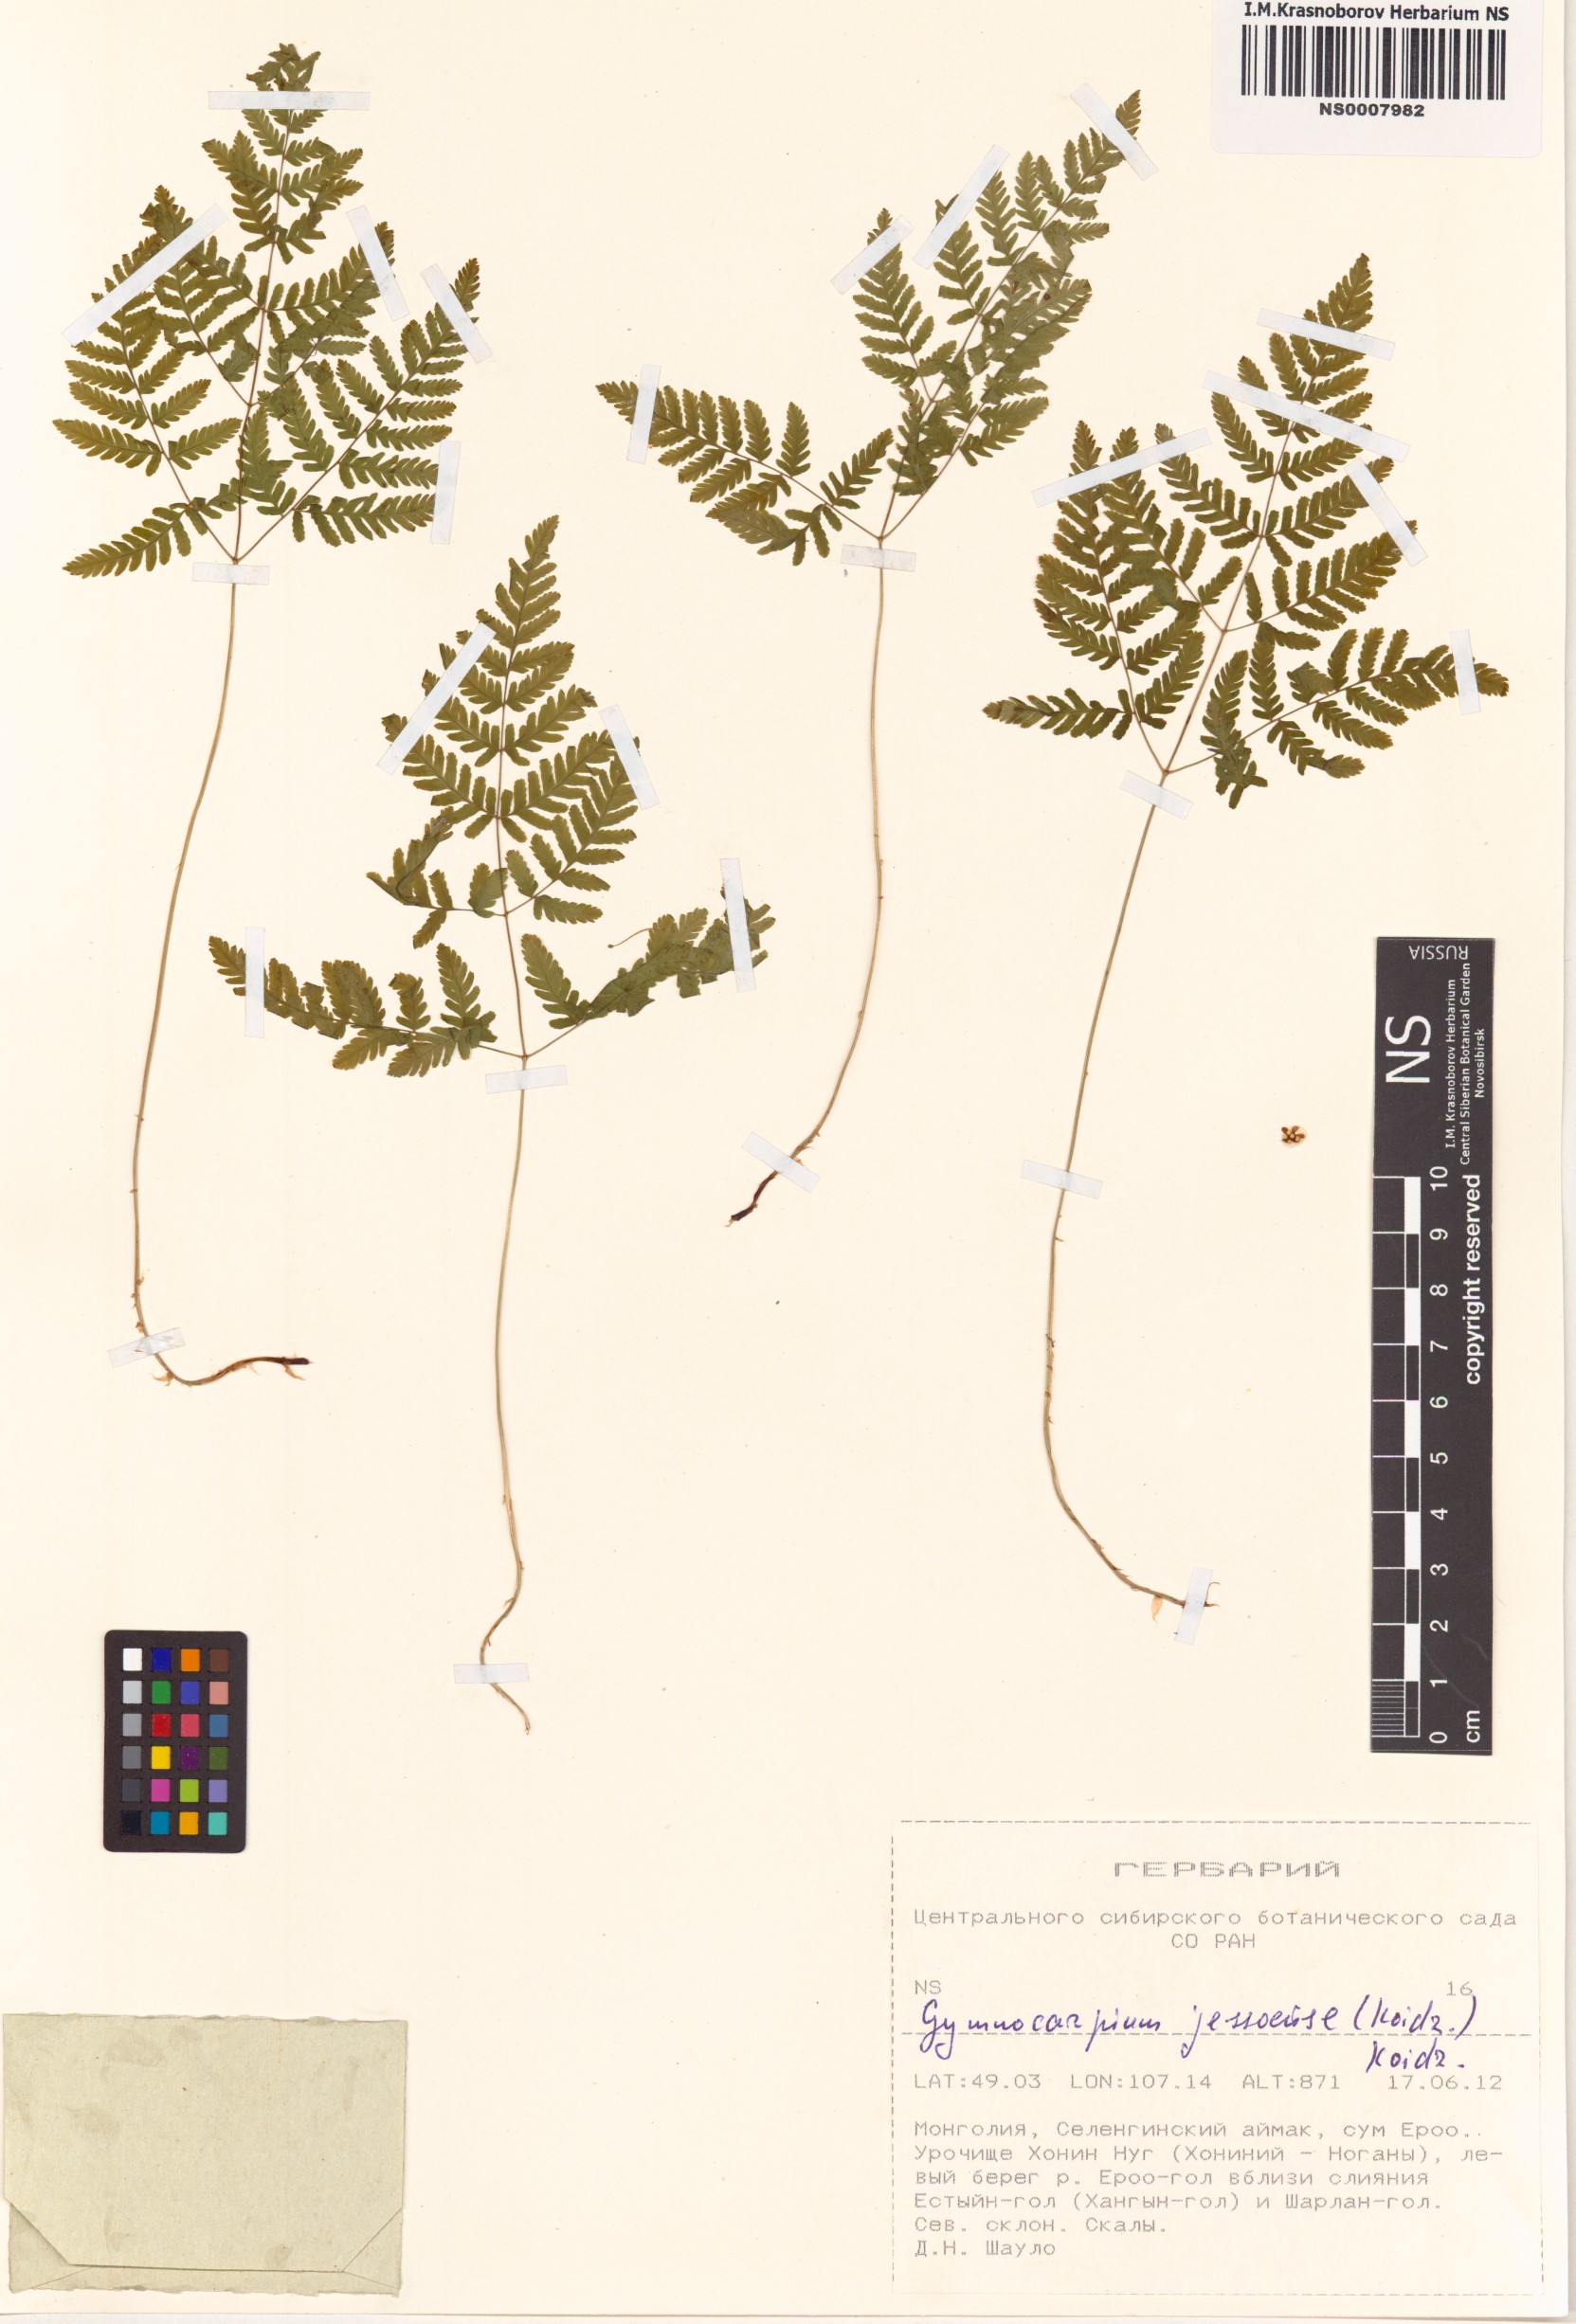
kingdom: Plantae
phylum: Tracheophyta
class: Polypodiopsida
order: Polypodiales
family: Cystopteridaceae
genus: Gymnocarpium
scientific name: Gymnocarpium jessoense
